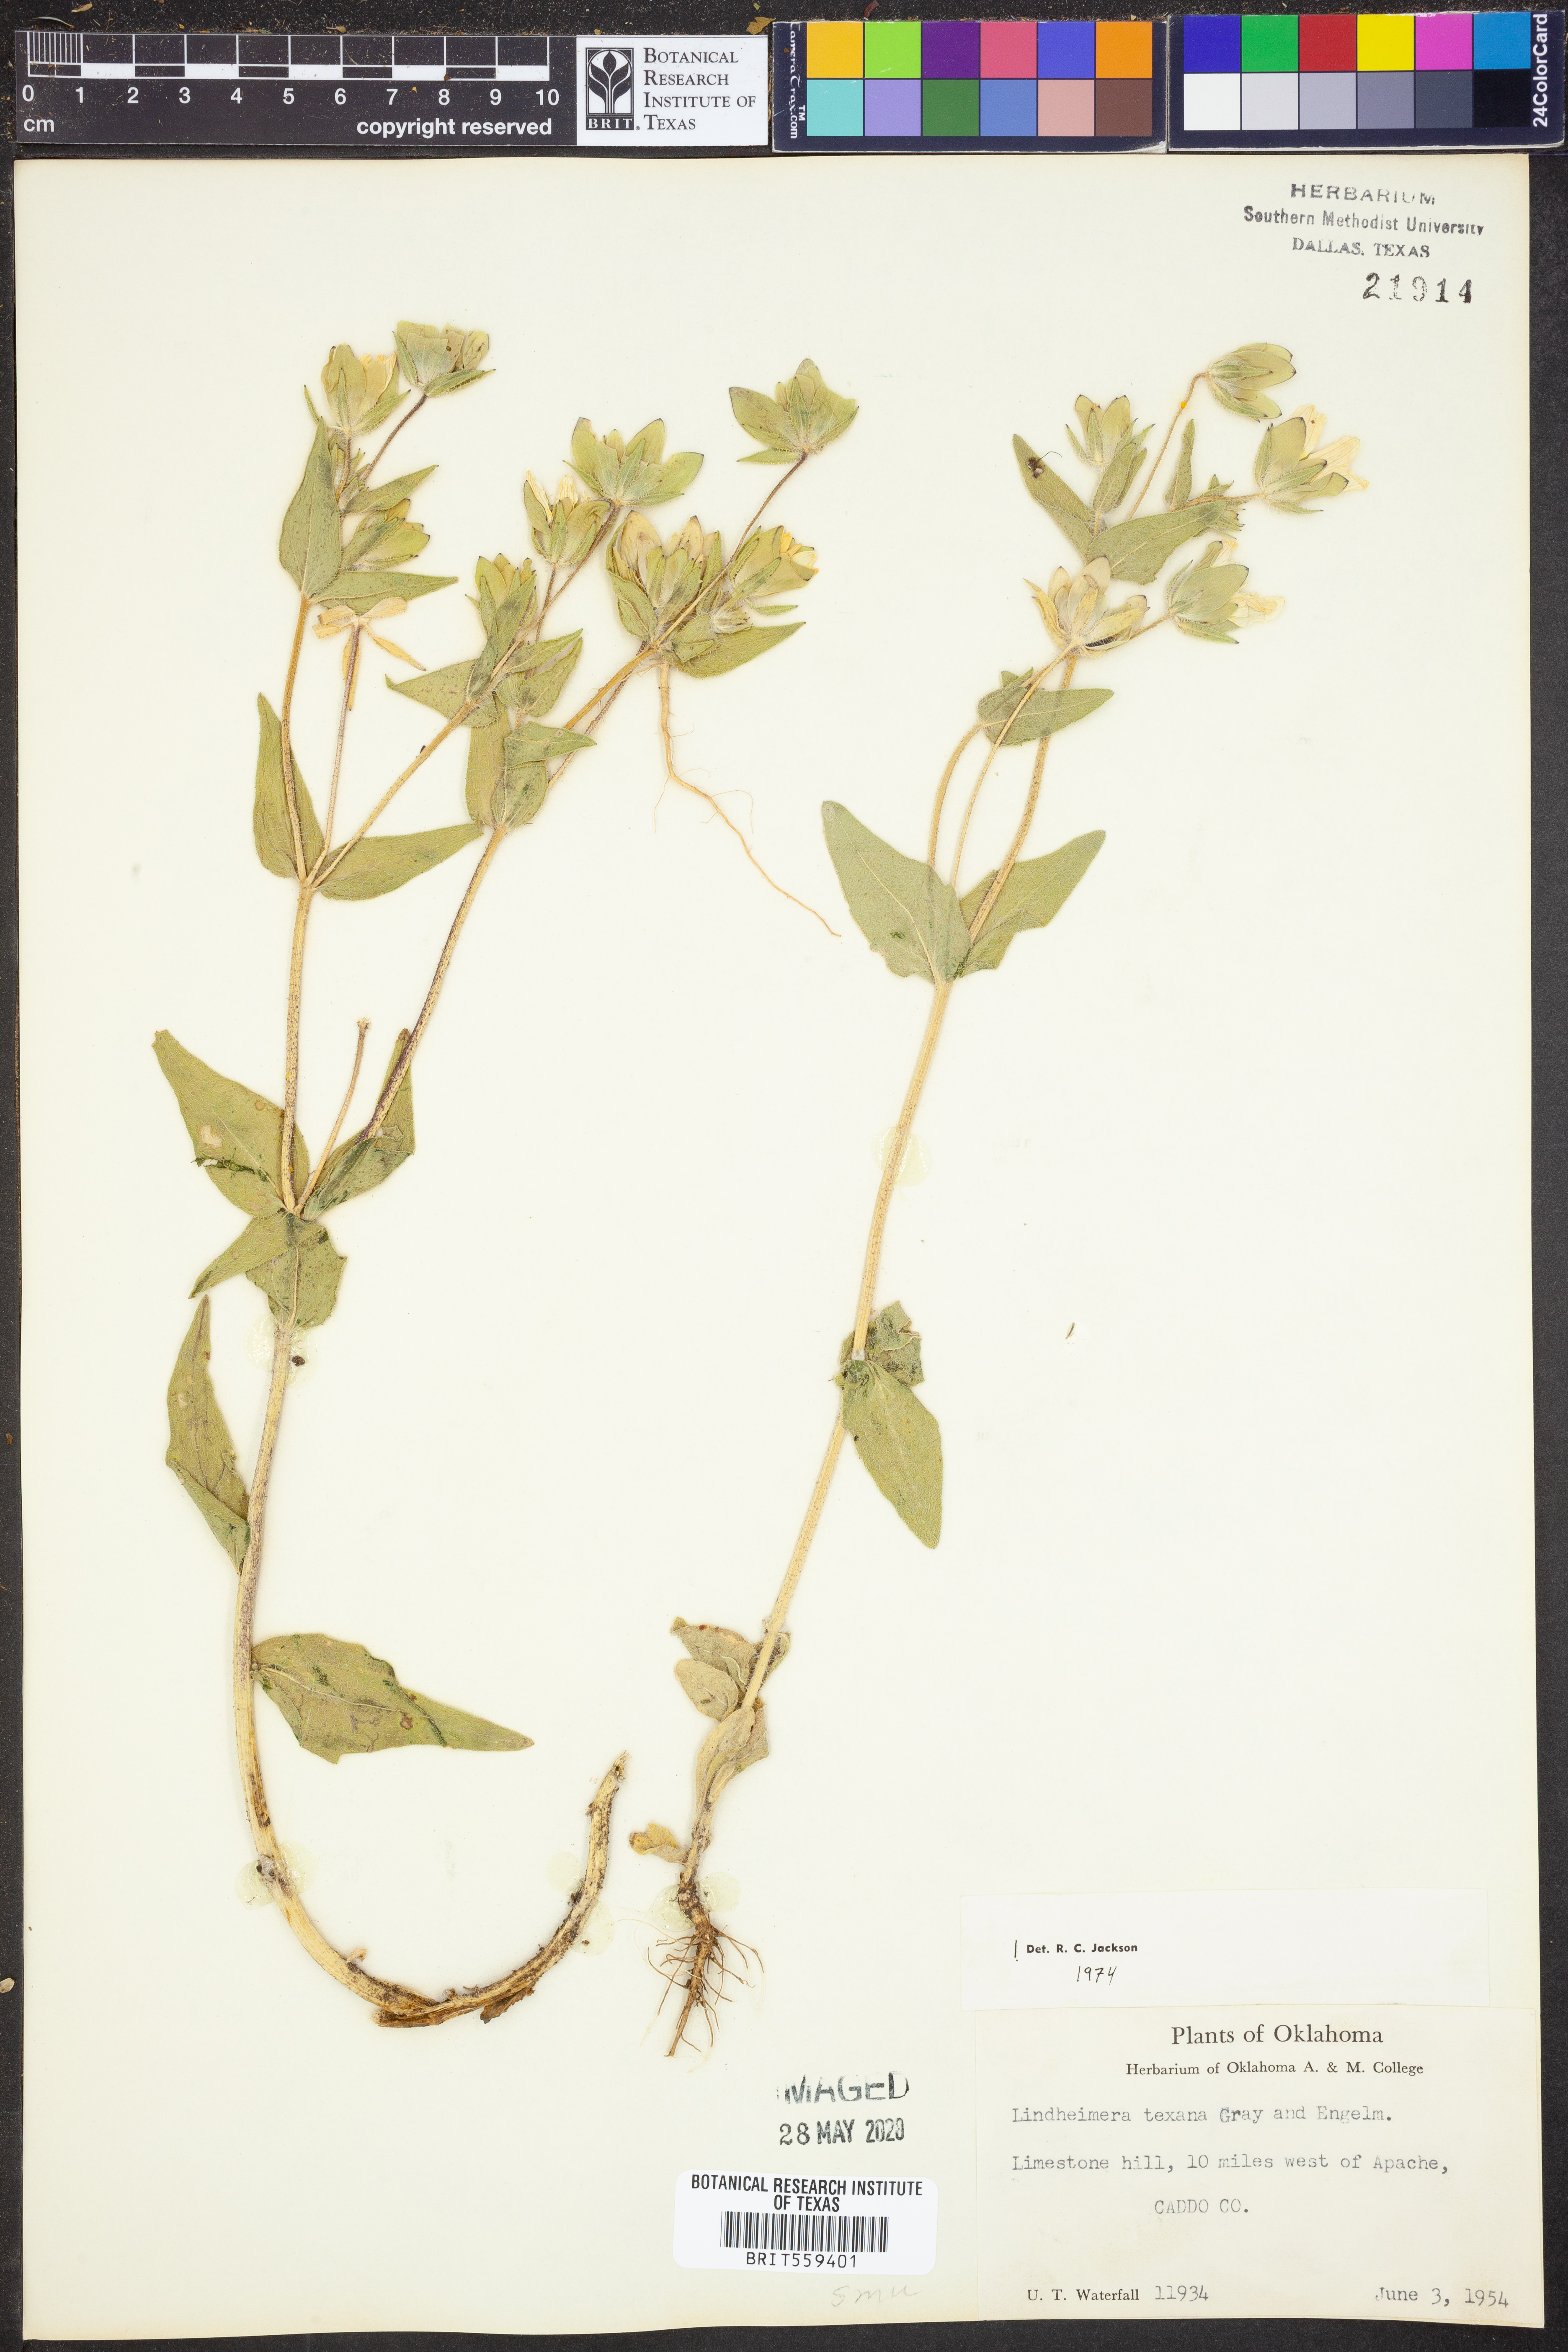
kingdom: Plantae
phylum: Tracheophyta
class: Magnoliopsida
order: Asterales
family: Asteraceae
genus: Lindheimera
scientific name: Lindheimera texana
